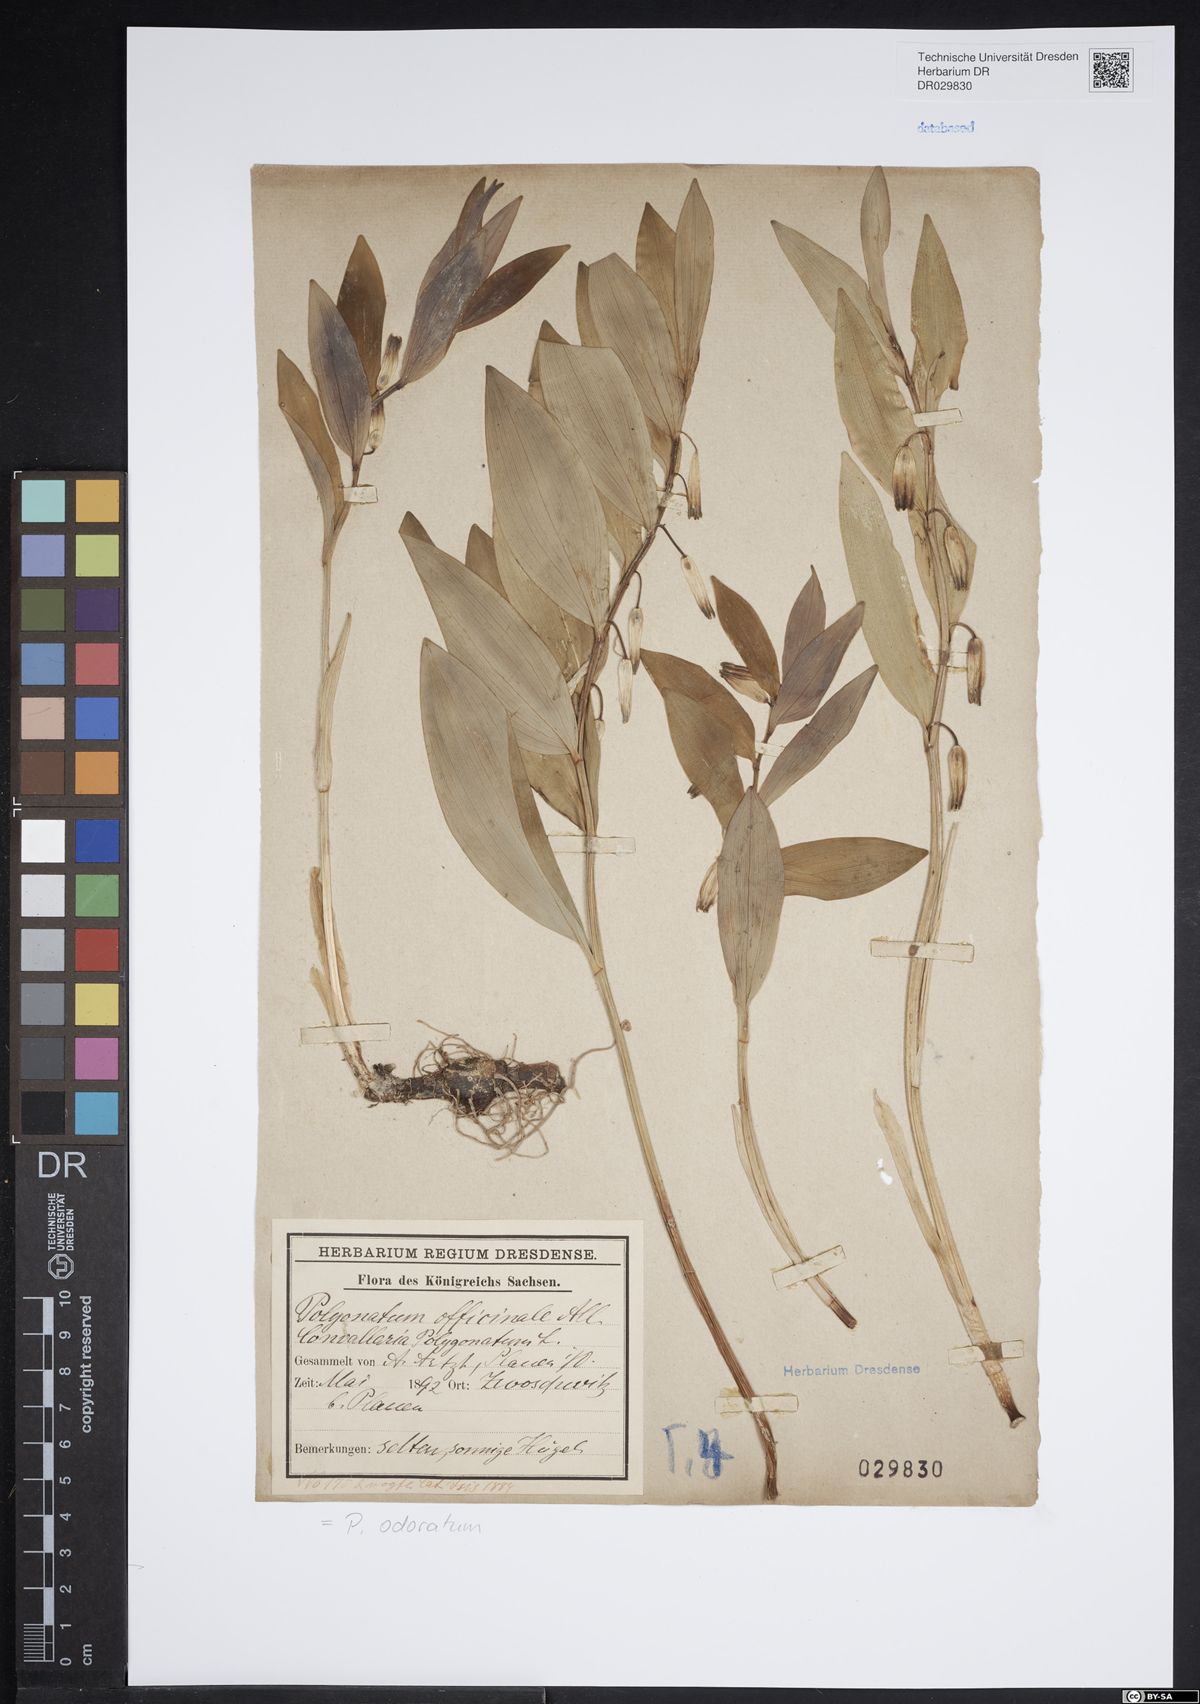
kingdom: Plantae
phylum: Tracheophyta
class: Liliopsida
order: Asparagales
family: Asparagaceae
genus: Polygonatum
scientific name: Polygonatum odoratum
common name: Angular solomon's-seal
